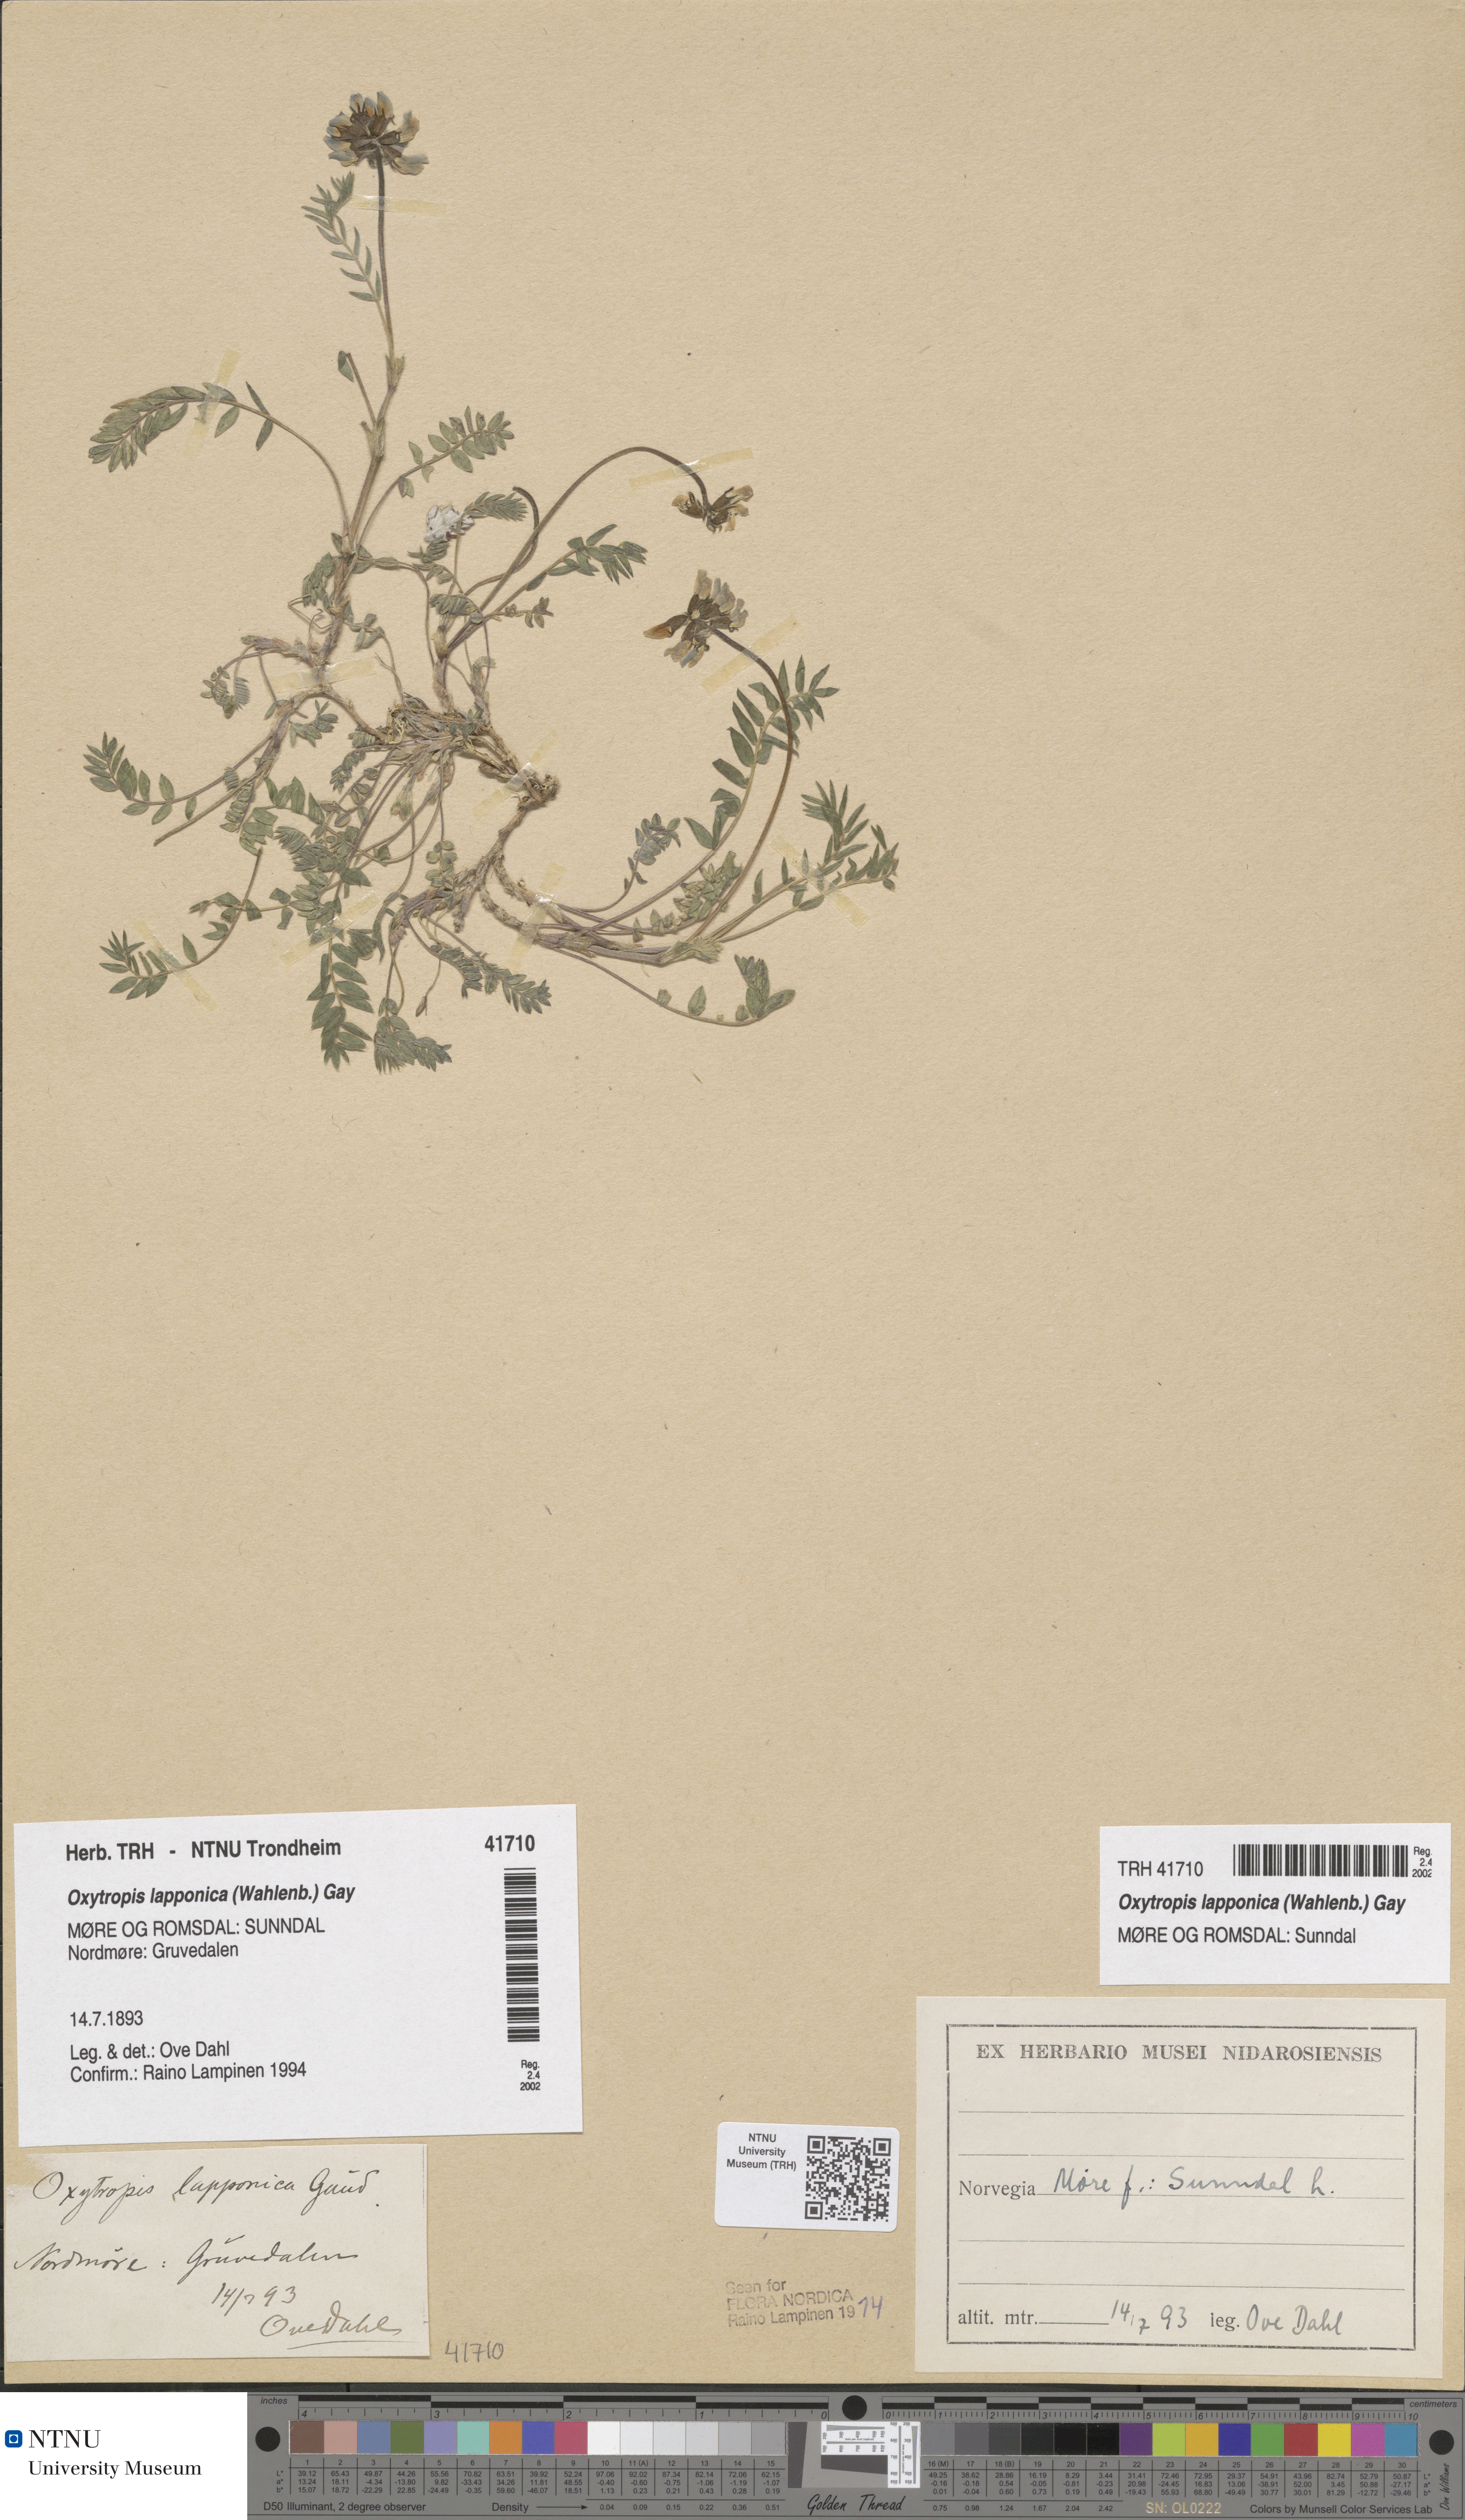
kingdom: Plantae
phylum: Tracheophyta
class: Magnoliopsida
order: Fabales
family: Fabaceae
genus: Oxytropis
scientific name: Oxytropis lapponica
